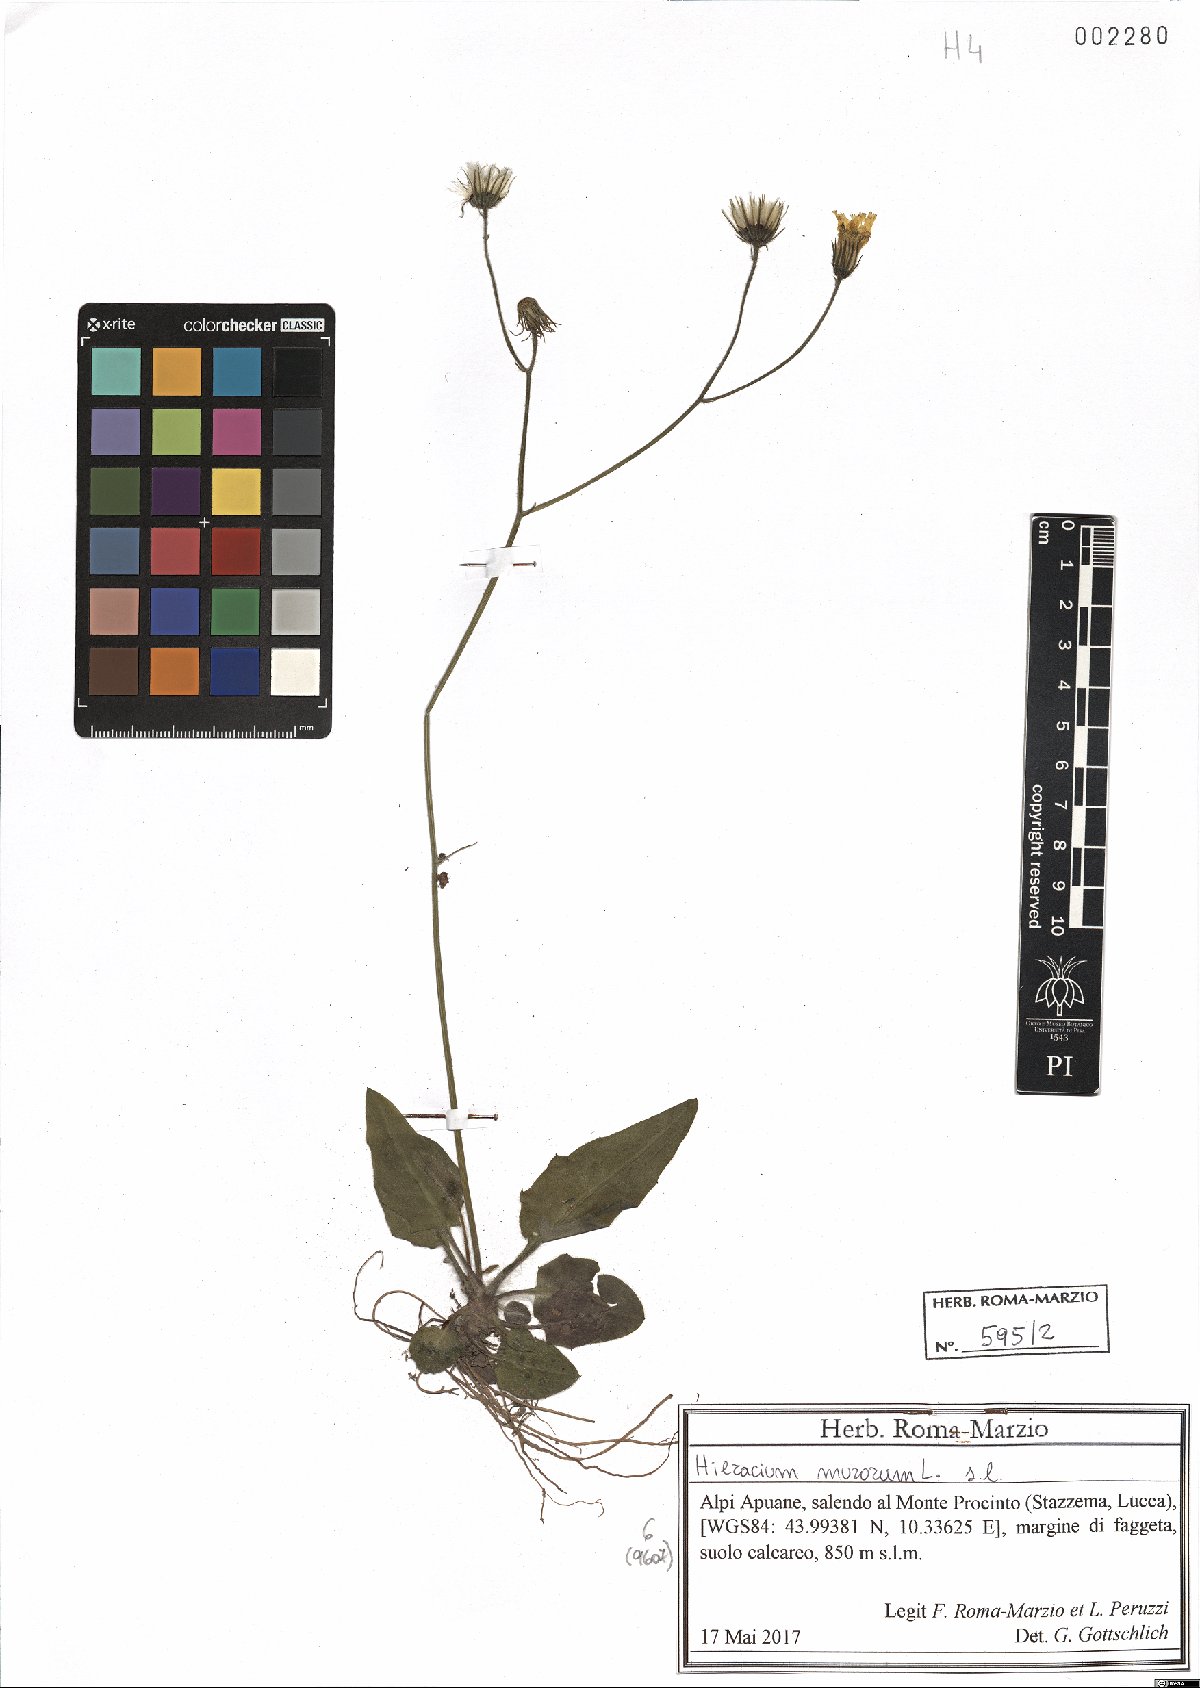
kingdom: Plantae
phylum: Tracheophyta
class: Magnoliopsida
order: Asterales
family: Asteraceae
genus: Hieracium
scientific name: Hieracium murorum
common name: Wall hawkweed
